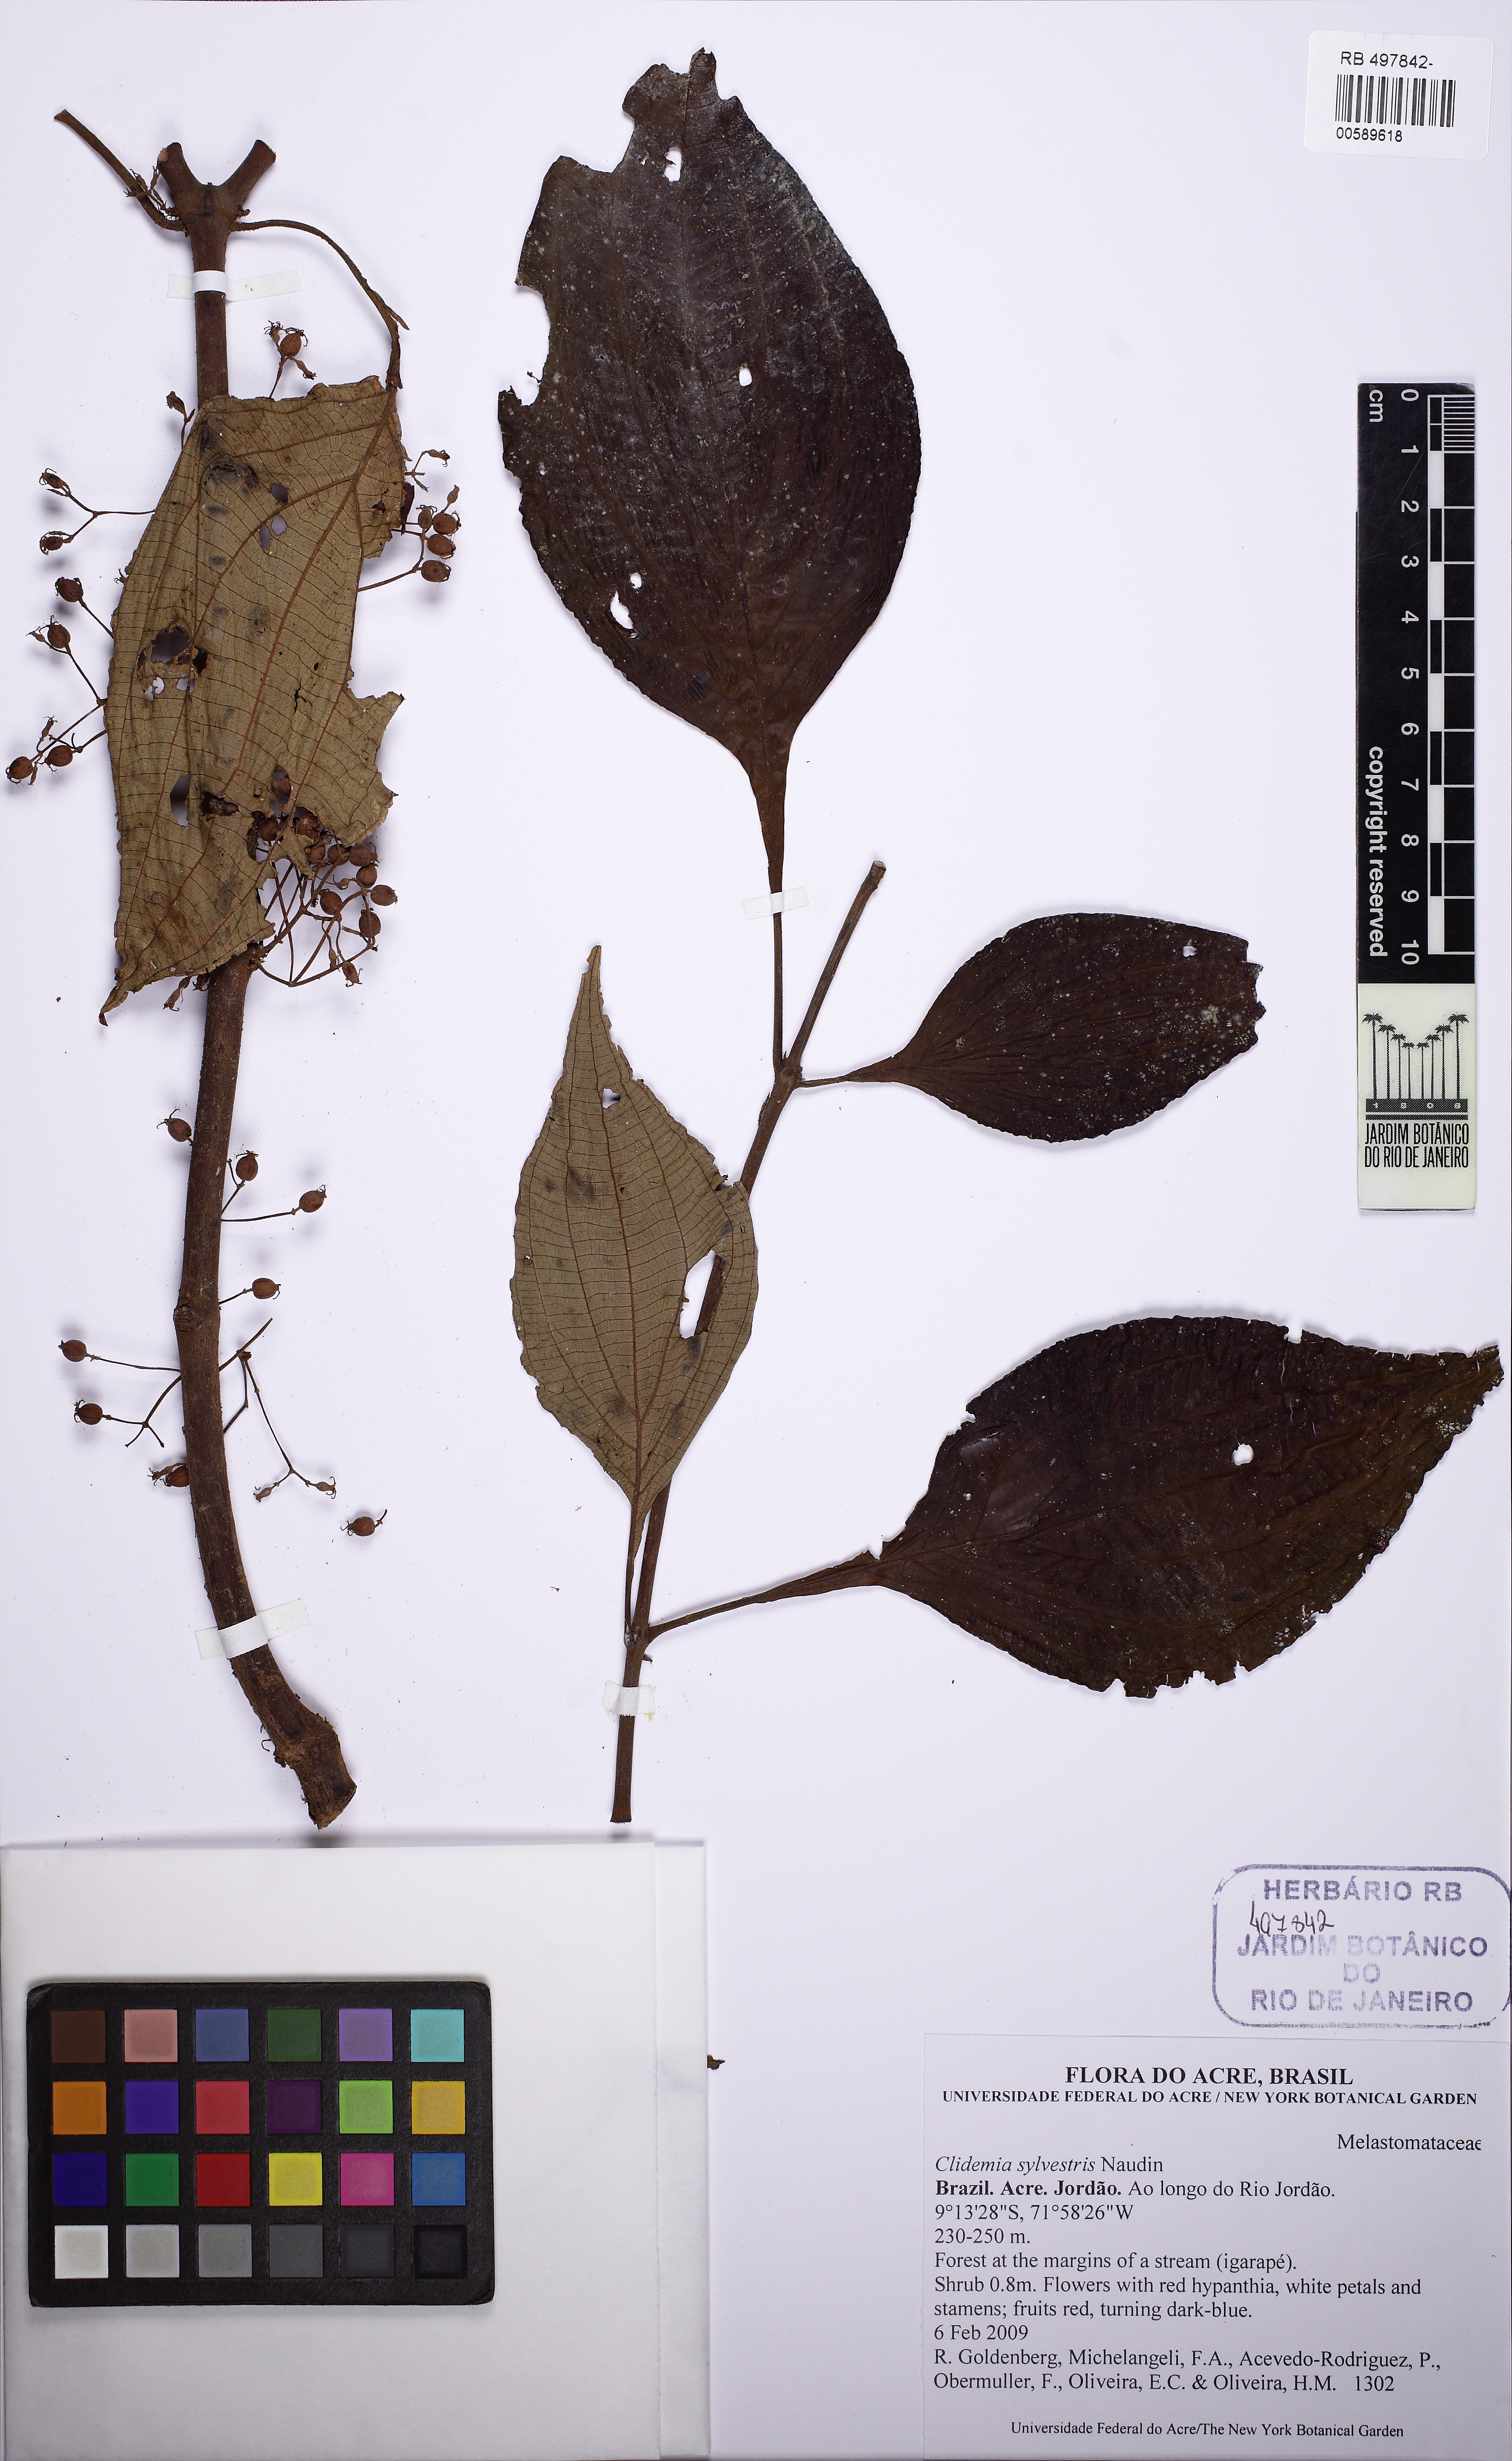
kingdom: Plantae
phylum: Tracheophyta
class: Magnoliopsida
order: Myrtales
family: Melastomataceae
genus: Miconia
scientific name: Miconia dubia
